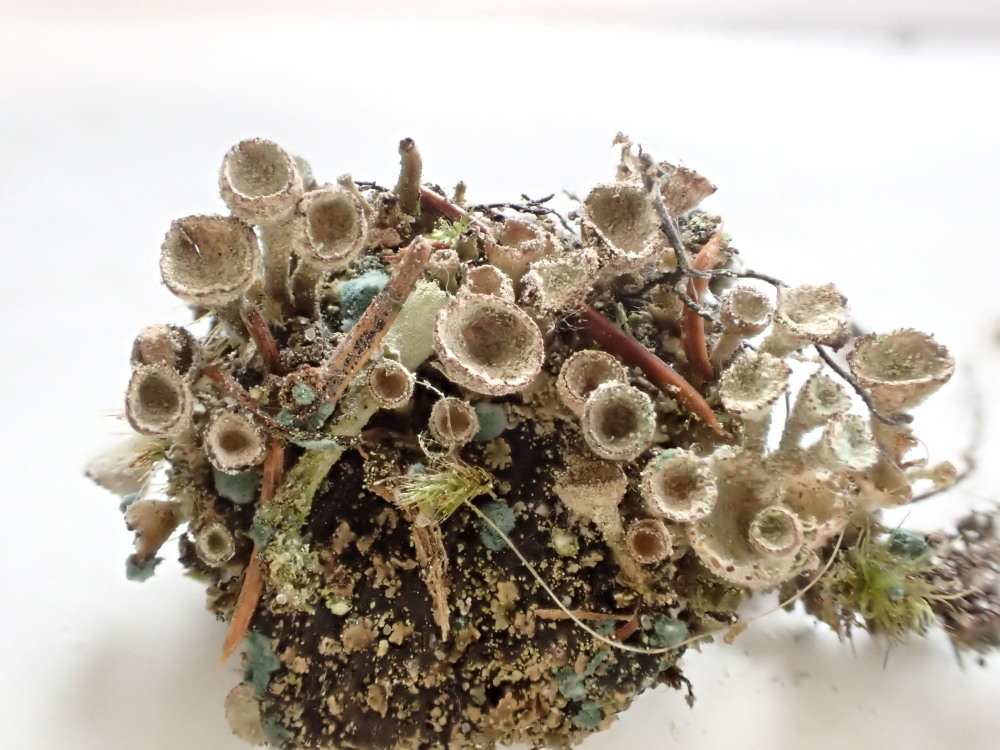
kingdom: Fungi
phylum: Ascomycota
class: Lecanoromycetes
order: Lecanorales
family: Cladoniaceae
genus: Cladonia
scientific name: Cladonia
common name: brungrøn bægerlav
